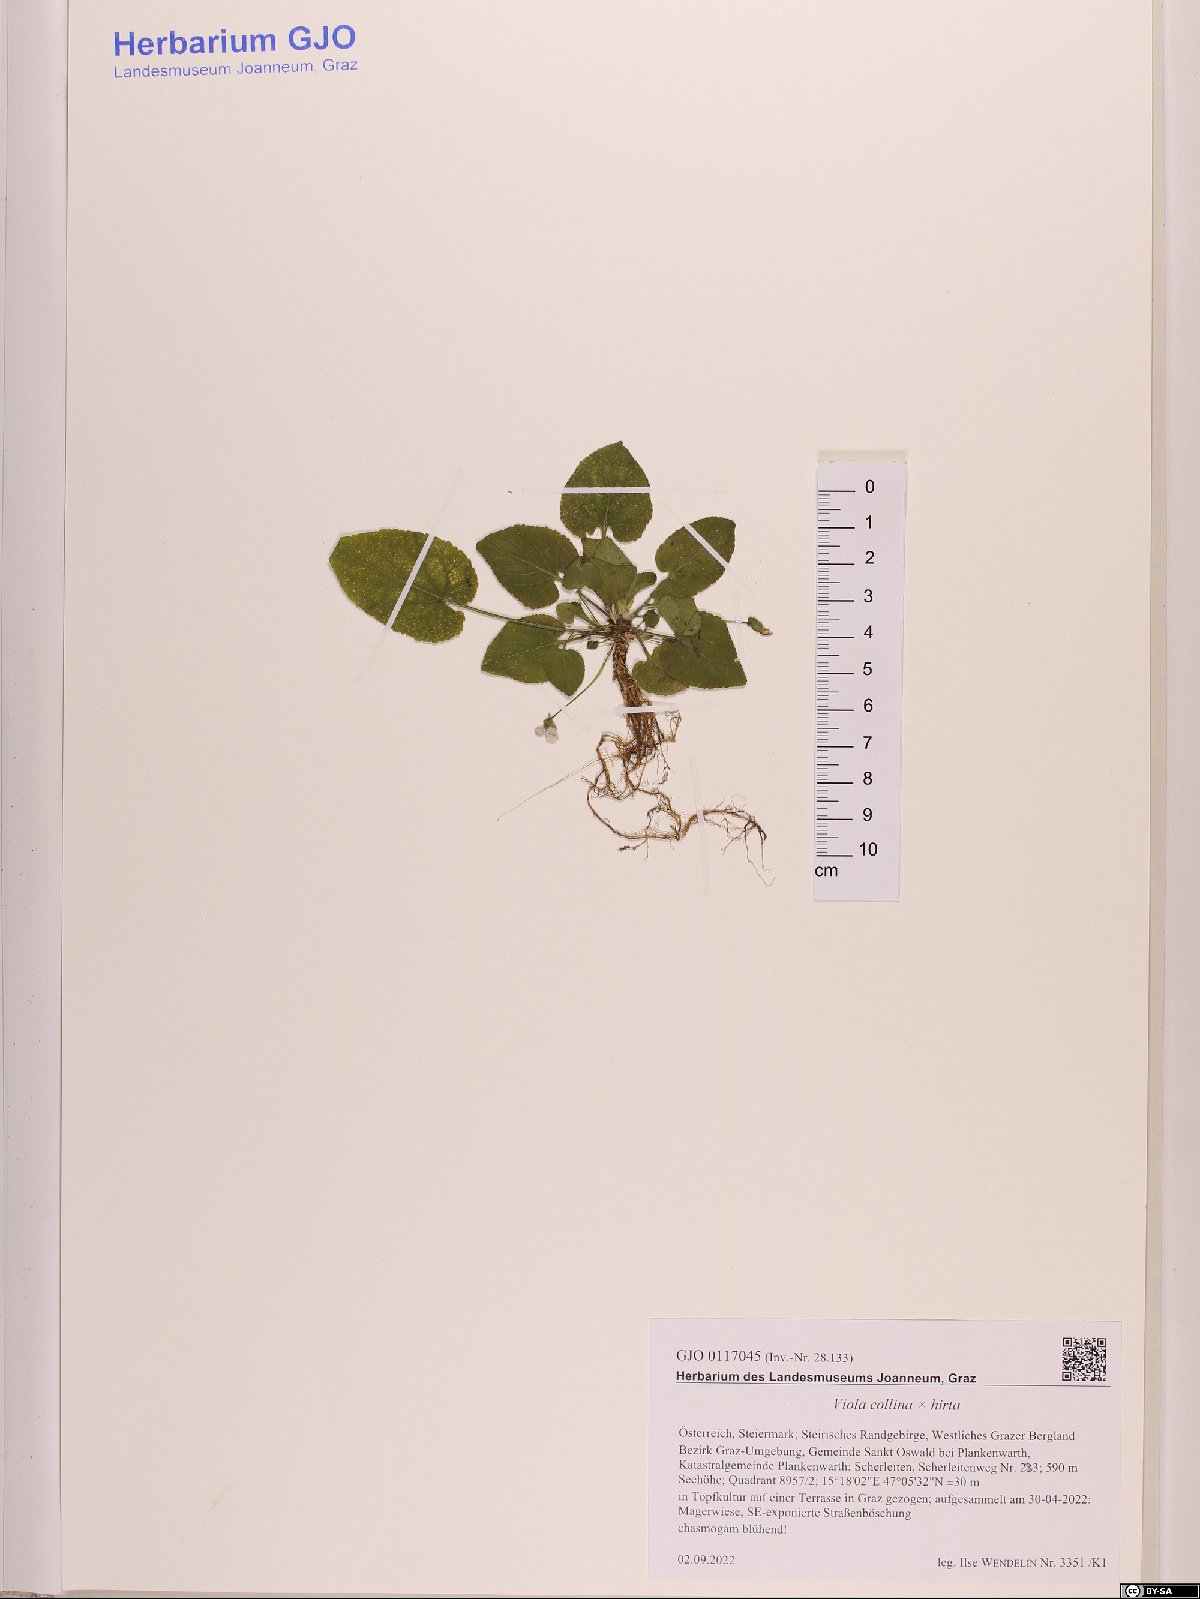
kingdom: Plantae
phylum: Tracheophyta
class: Magnoliopsida
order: Malpighiales
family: Violaceae
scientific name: Violaceae
